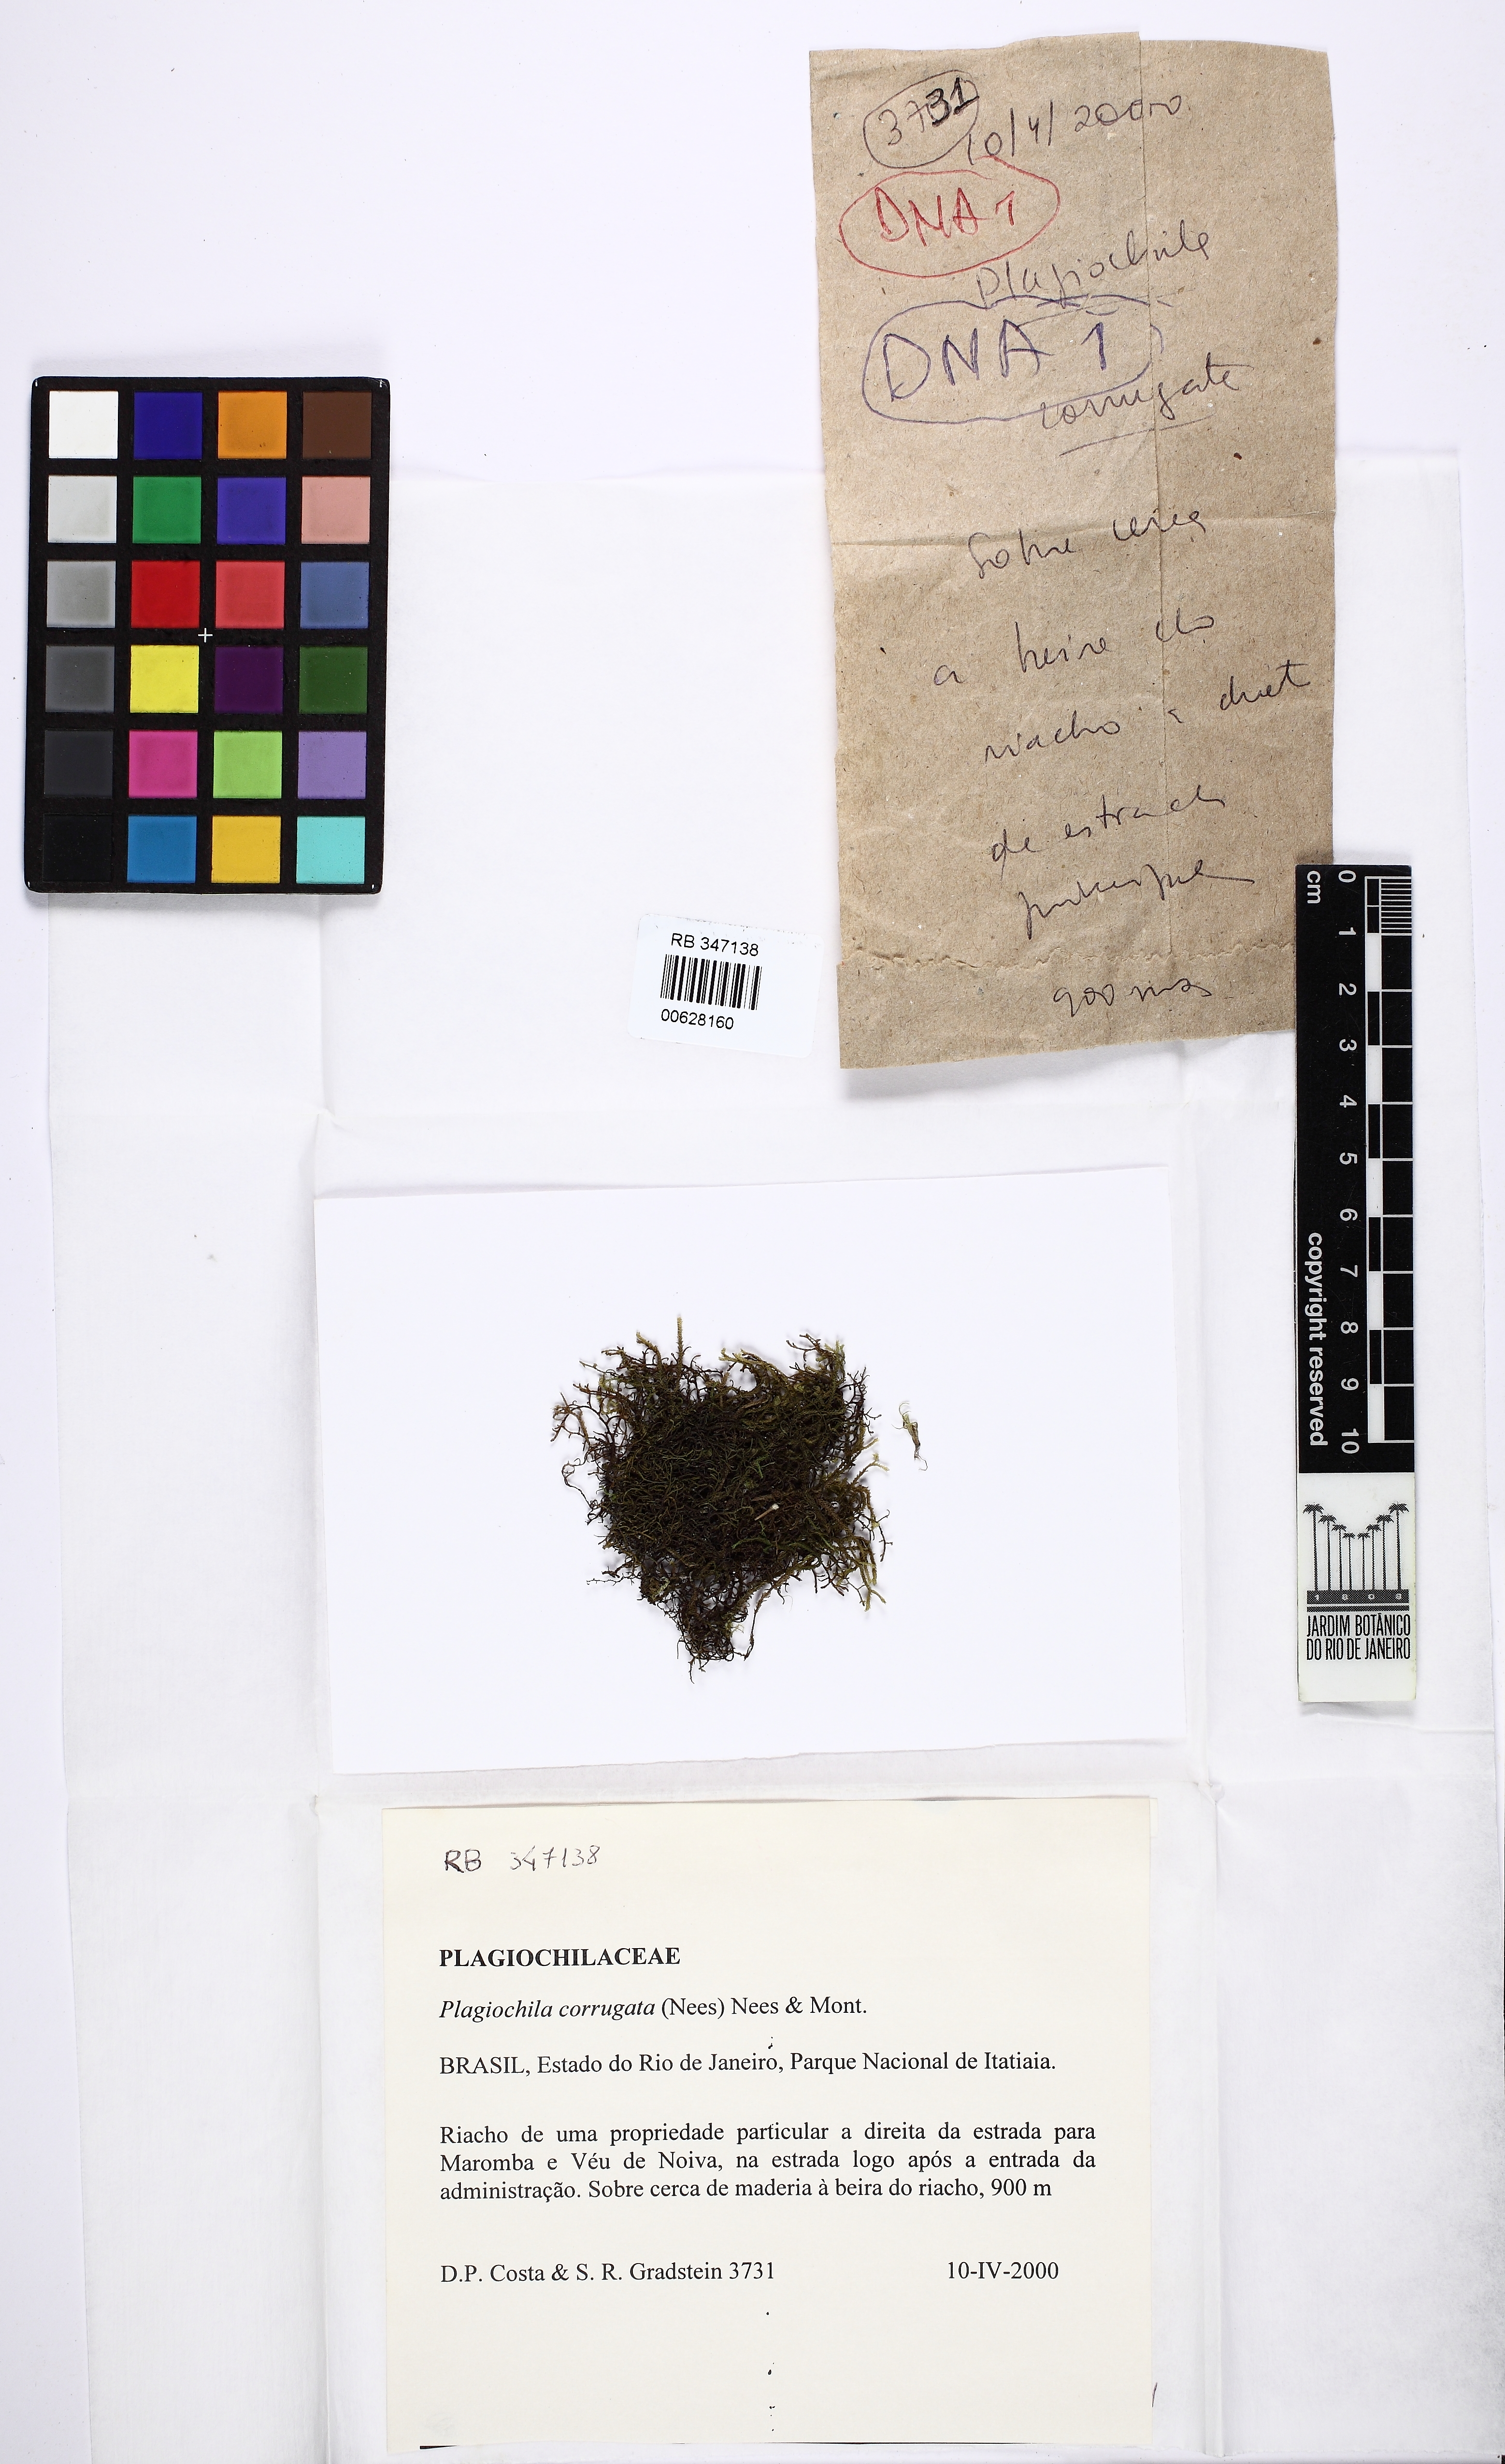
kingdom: Plantae
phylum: Marchantiophyta
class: Jungermanniopsida
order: Jungermanniales
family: Plagiochilaceae
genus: Plagiochila
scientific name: Plagiochila corrugata
